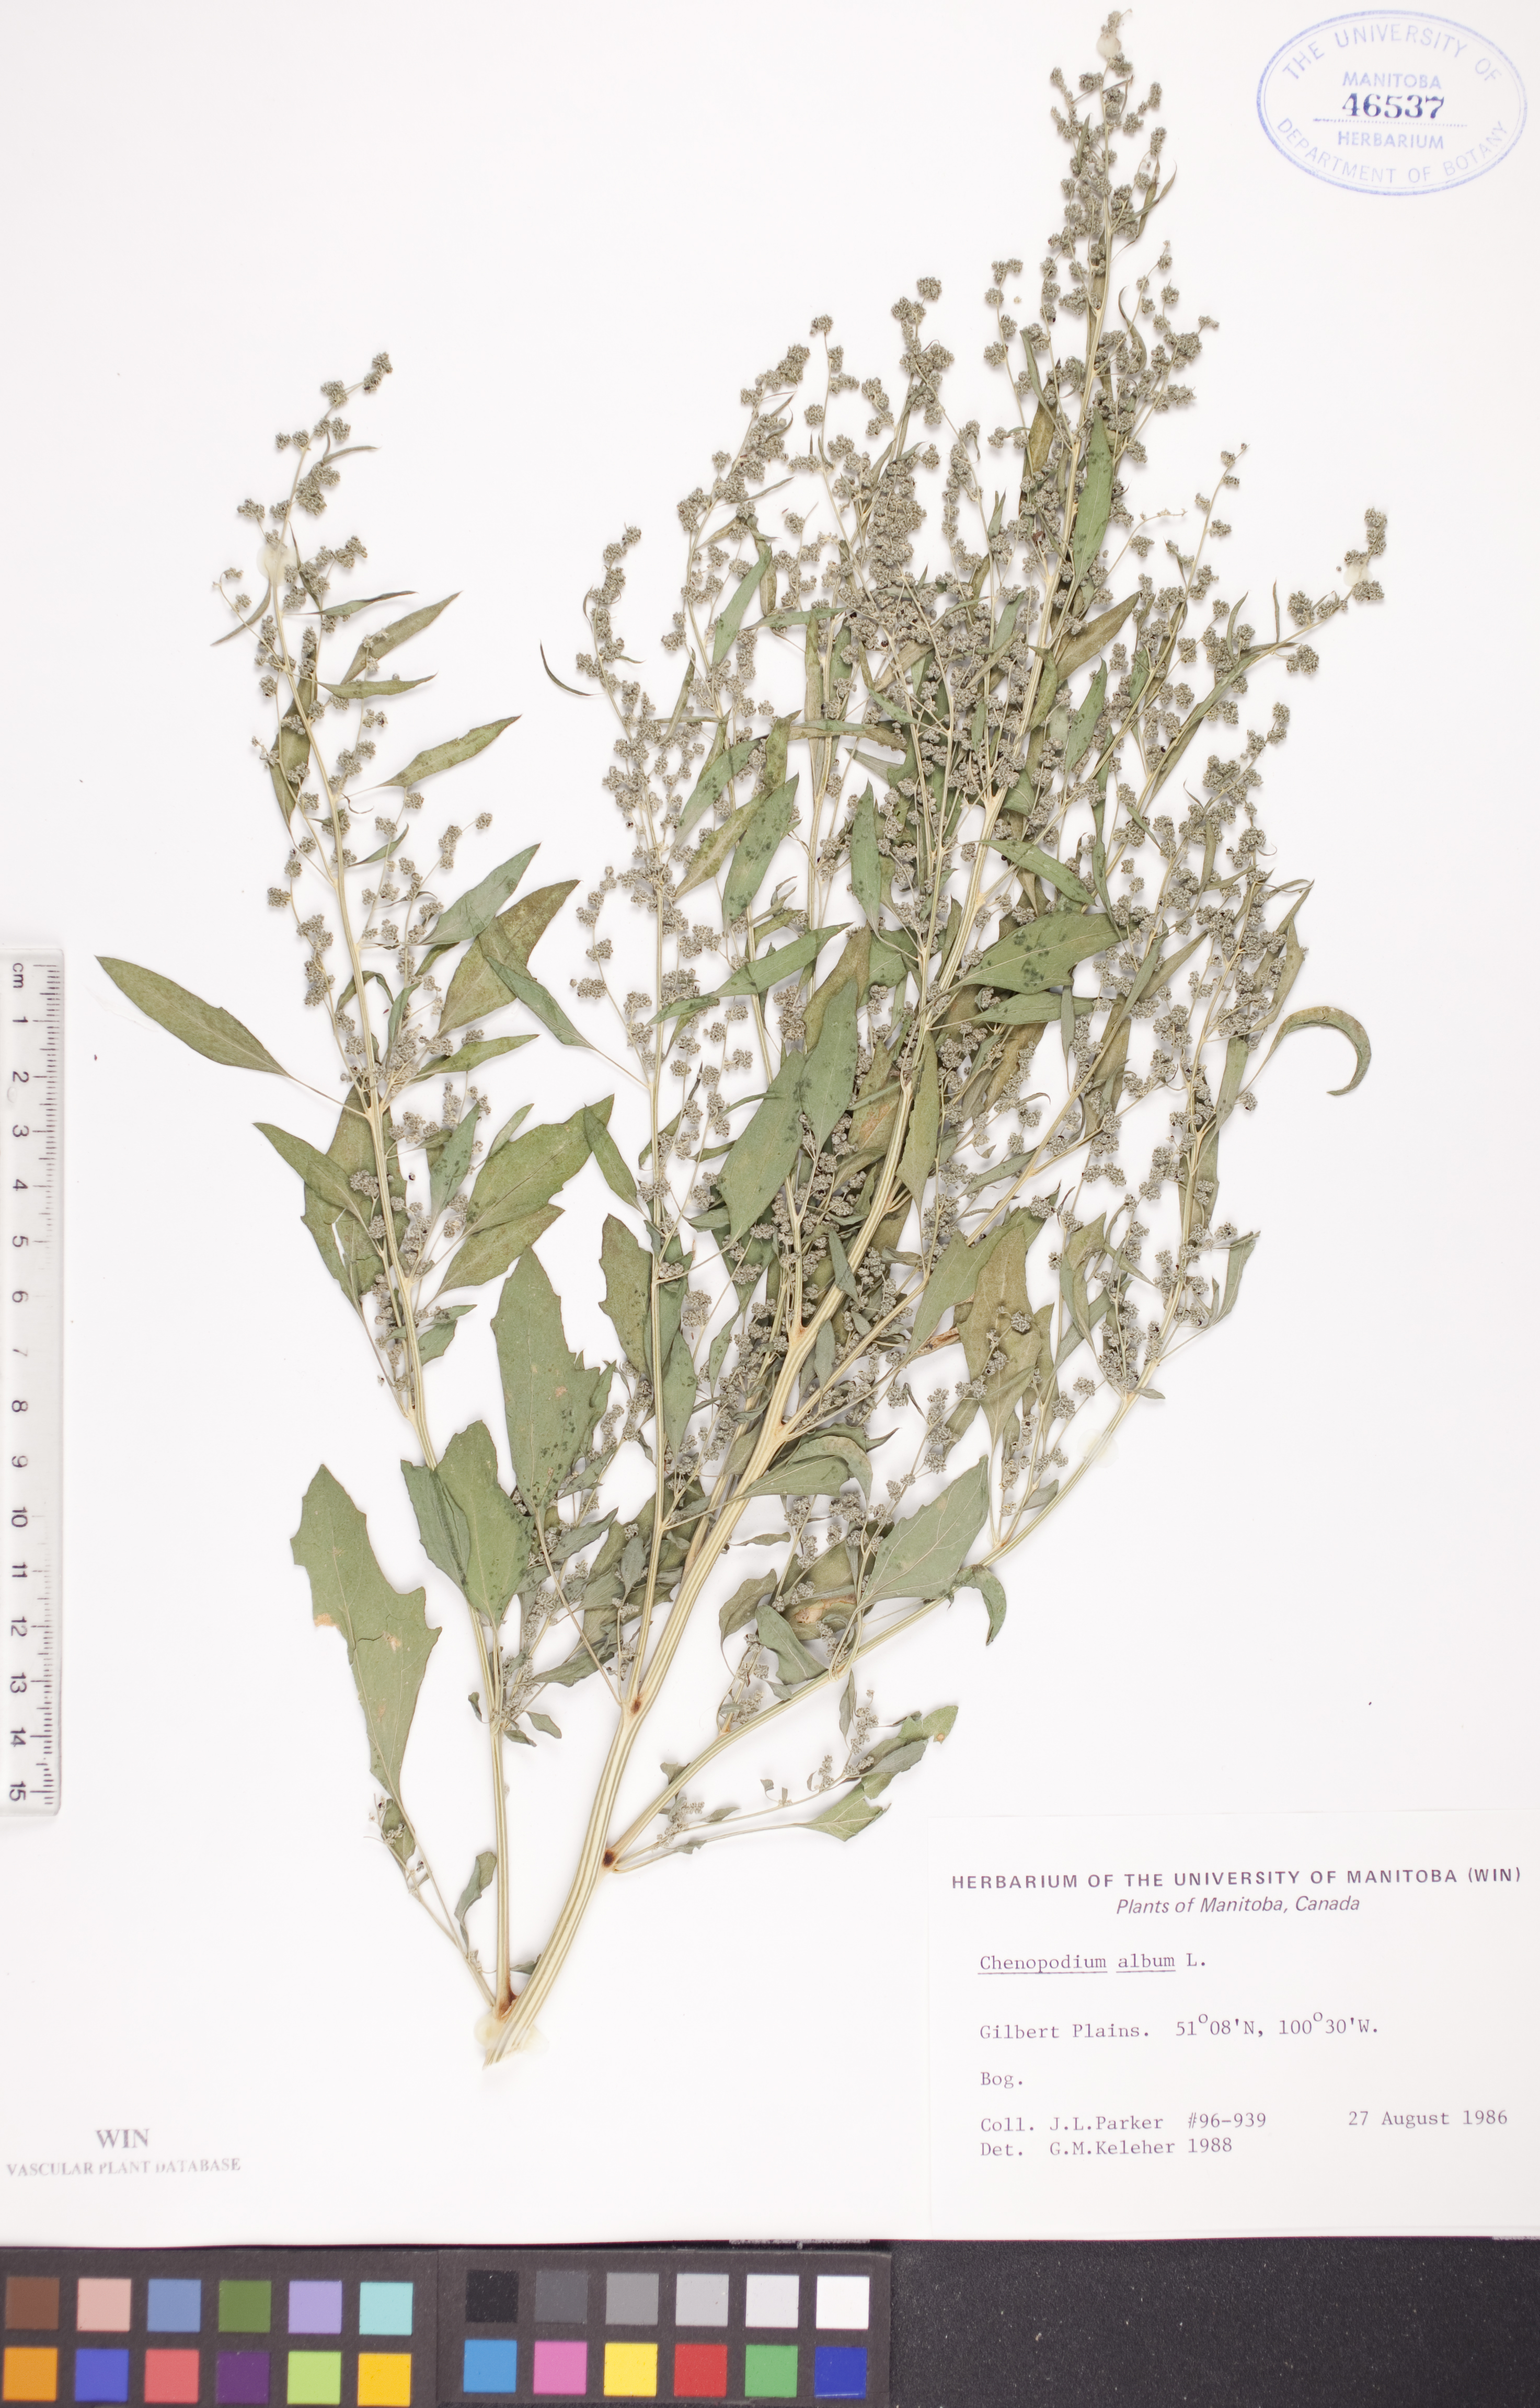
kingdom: Plantae
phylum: Tracheophyta
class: Magnoliopsida
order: Caryophyllales
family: Amaranthaceae
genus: Chenopodium
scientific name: Chenopodium album
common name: Fat-hen
